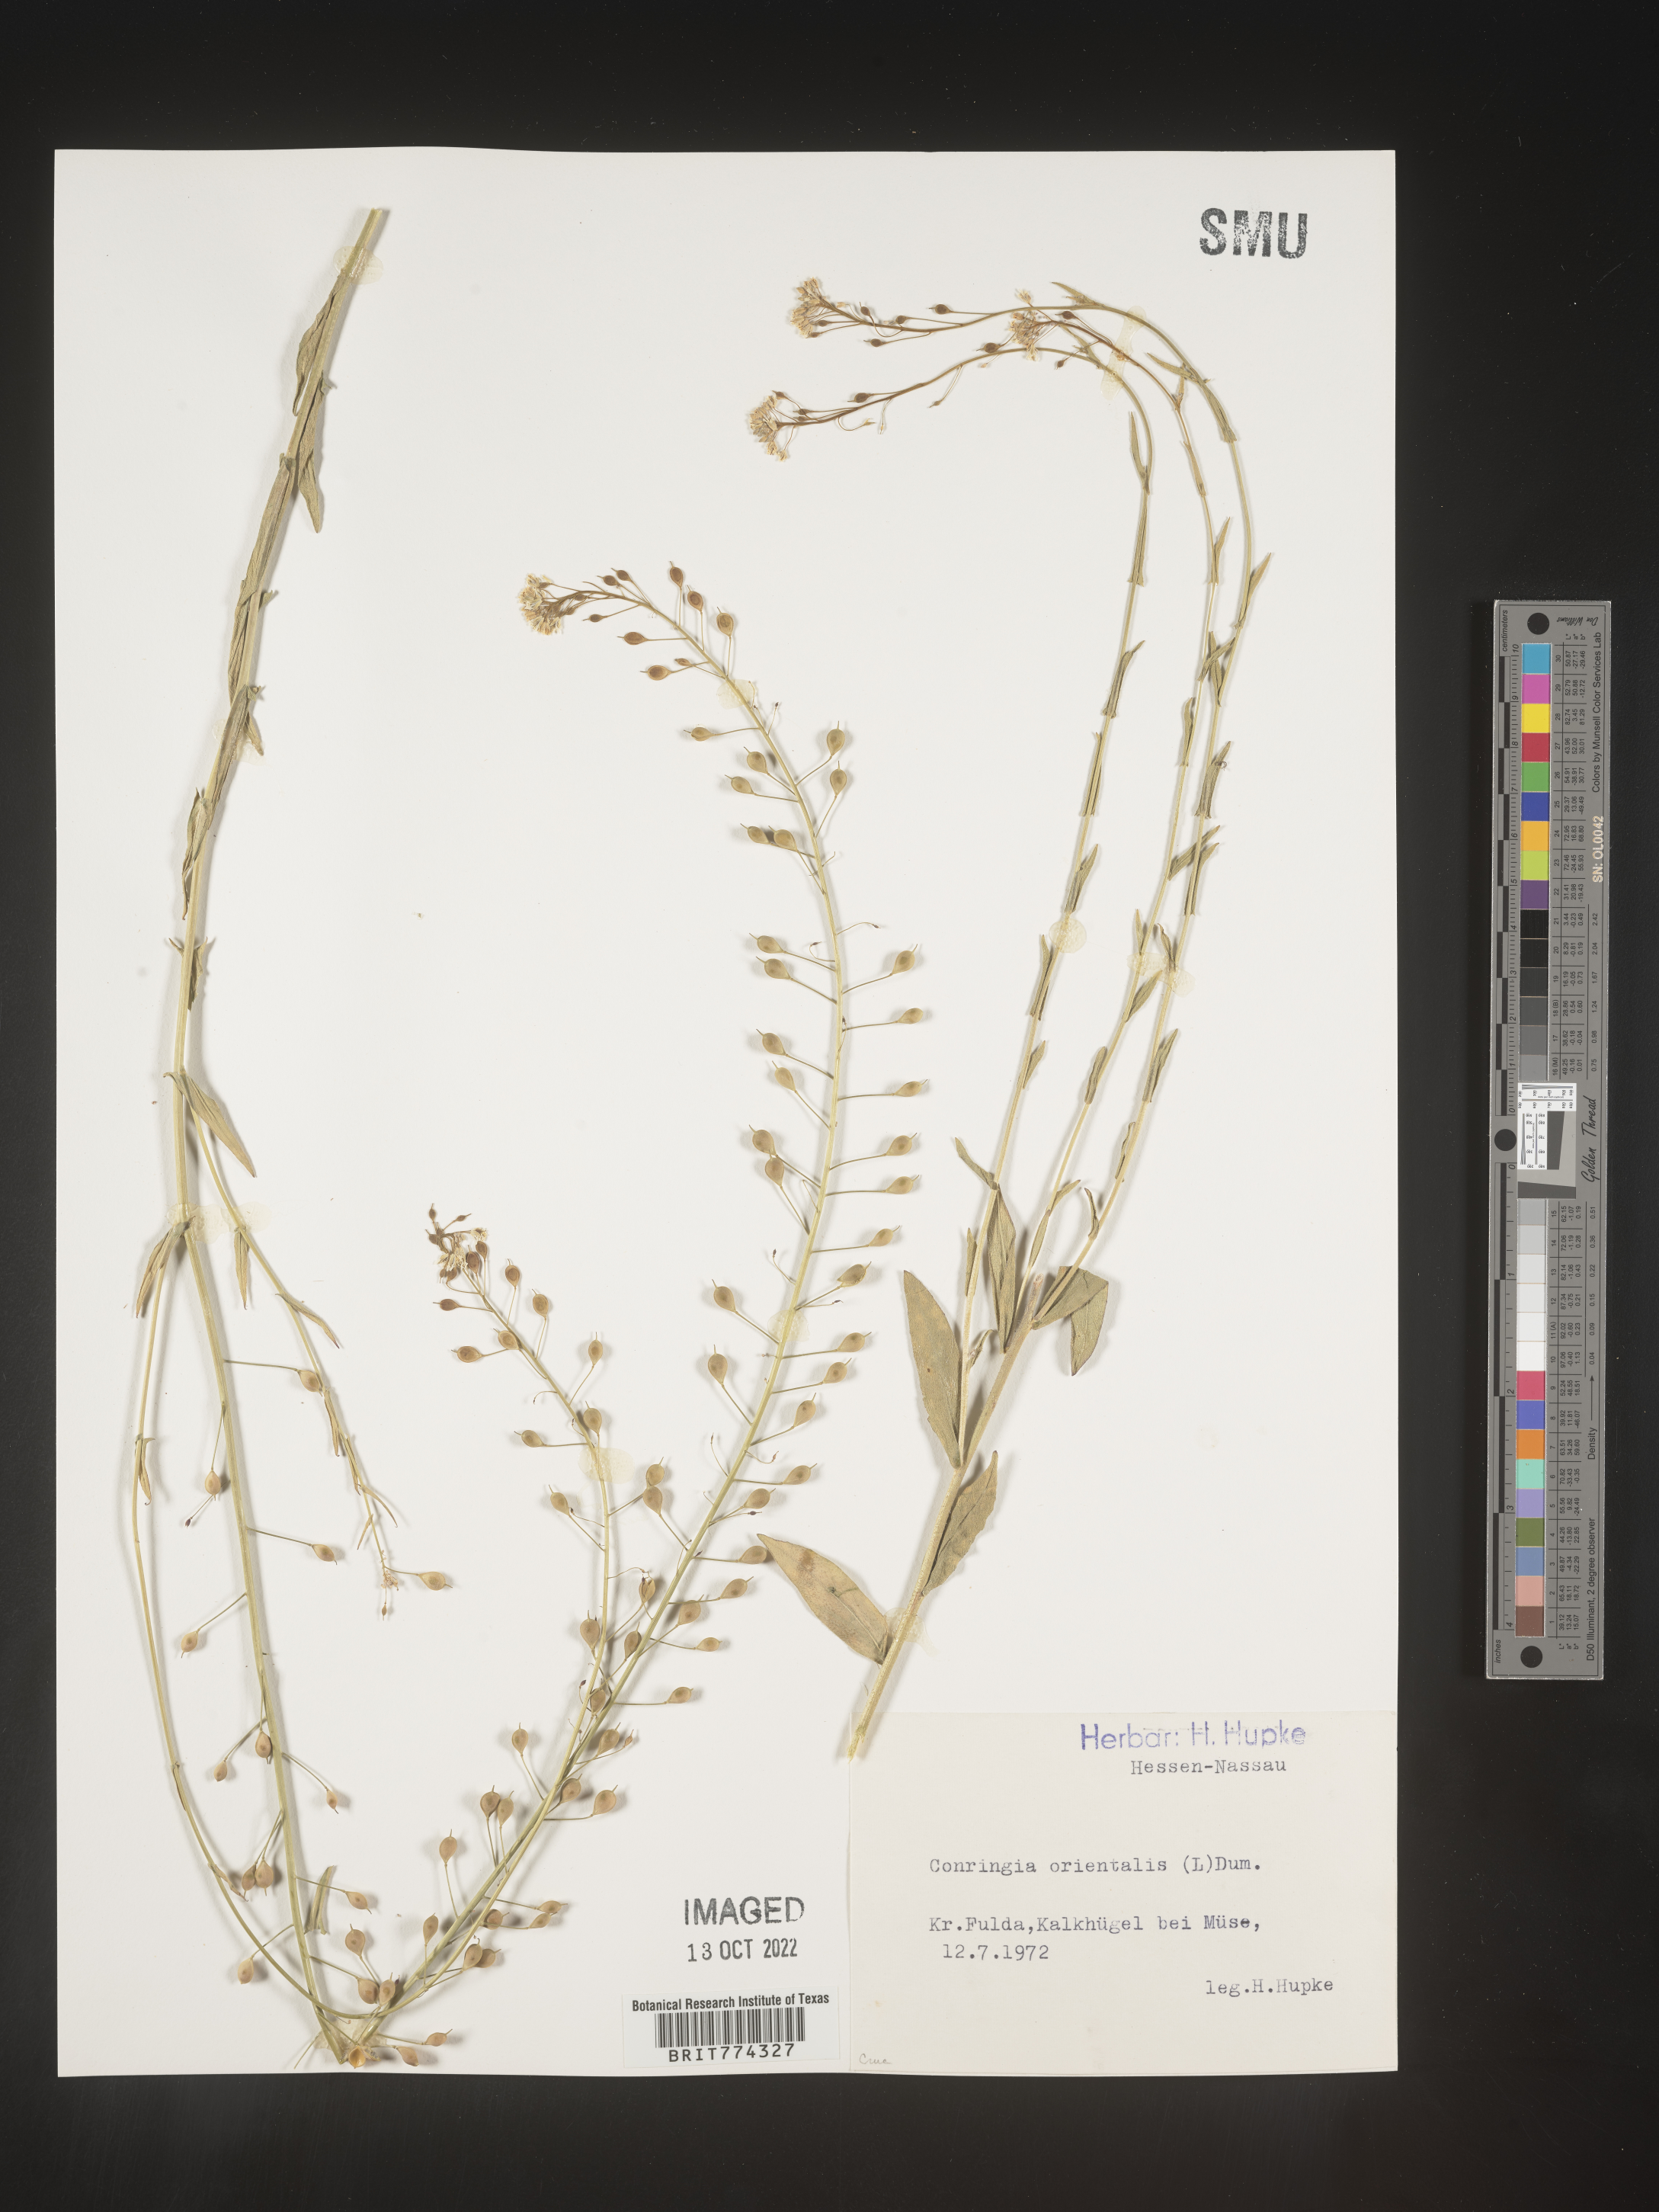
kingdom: Plantae
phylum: Tracheophyta
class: Magnoliopsida
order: Brassicales
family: Brassicaceae
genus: Conringia
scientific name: Conringia
